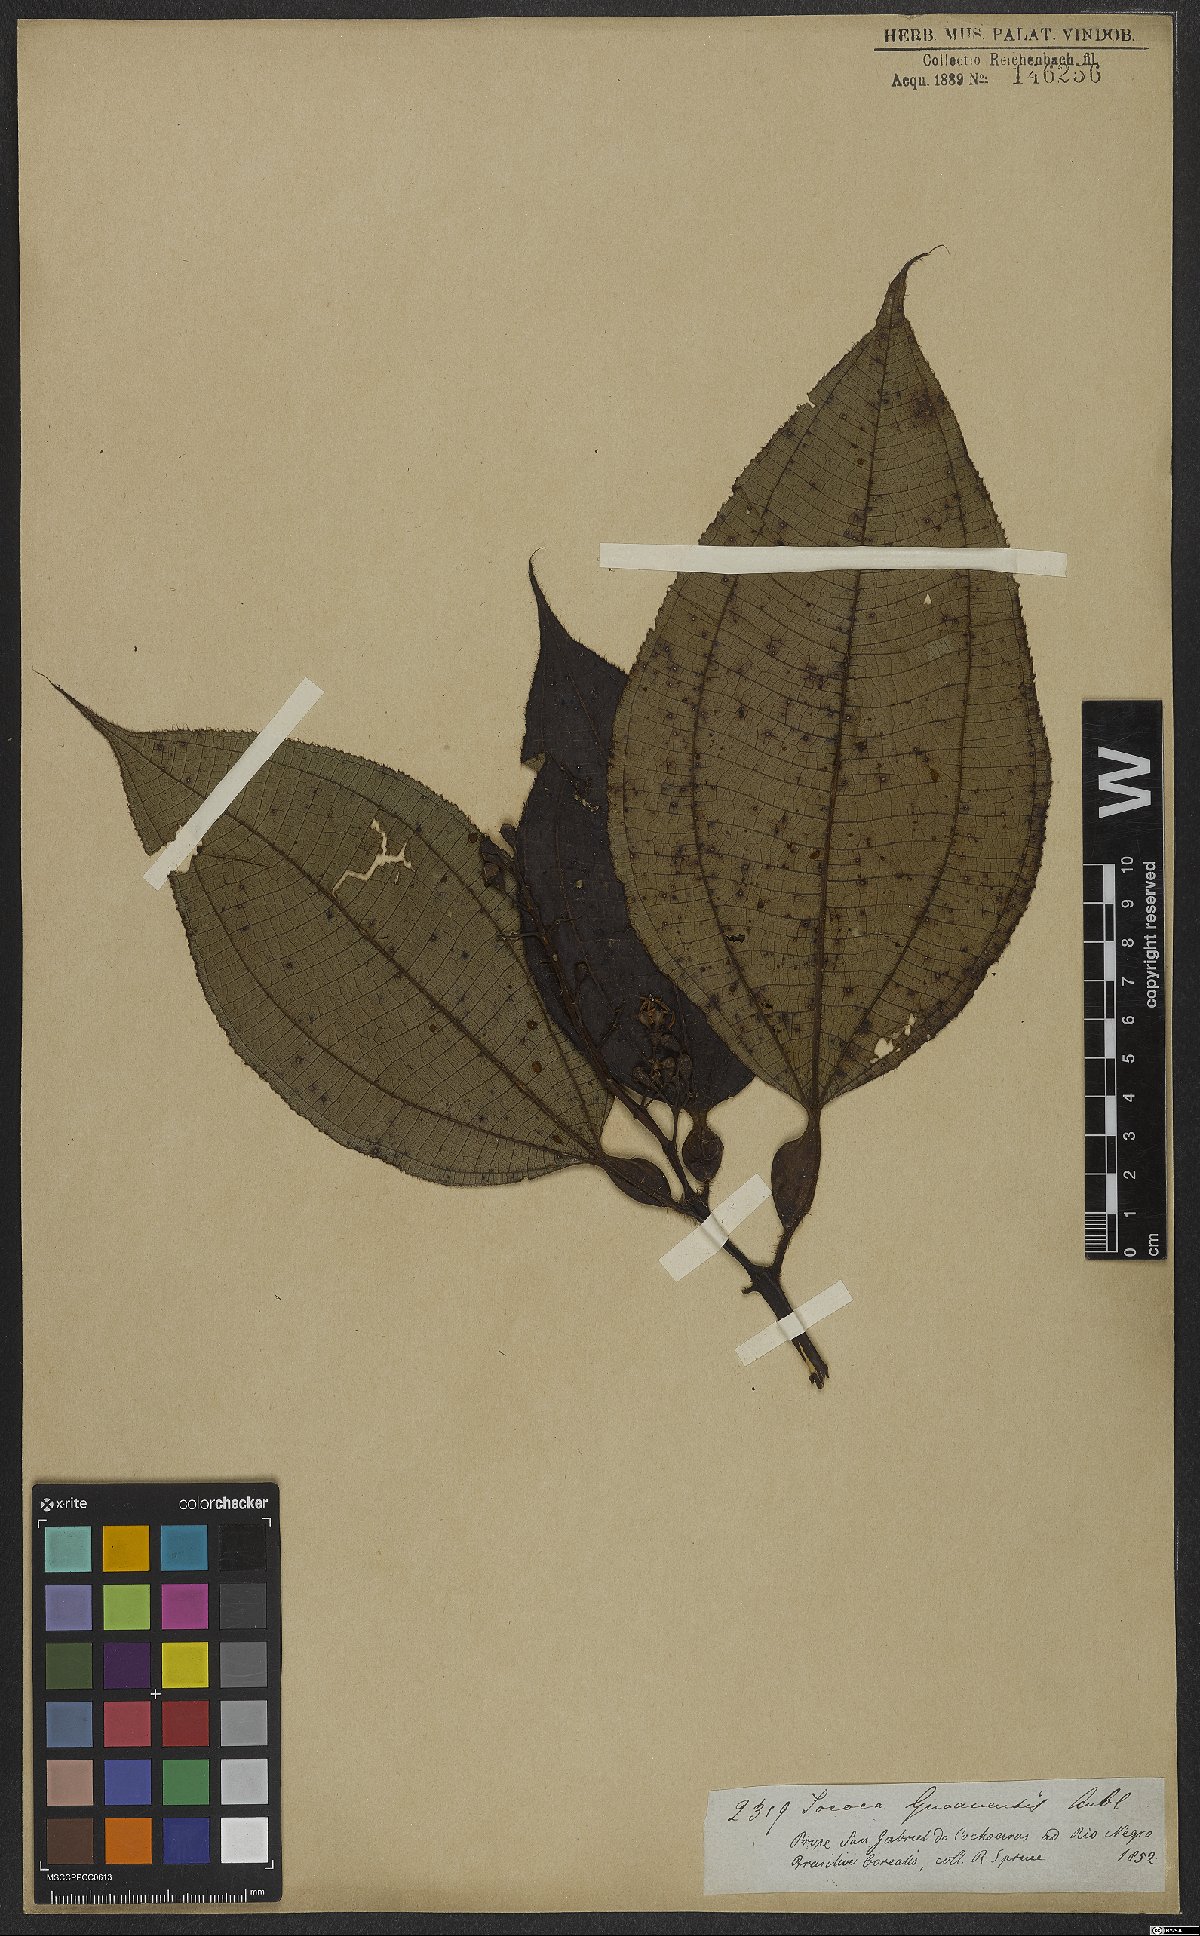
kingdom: Plantae
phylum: Tracheophyta
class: Magnoliopsida
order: Myrtales
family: Melastomataceae
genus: Miconia
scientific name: Miconia tococa
